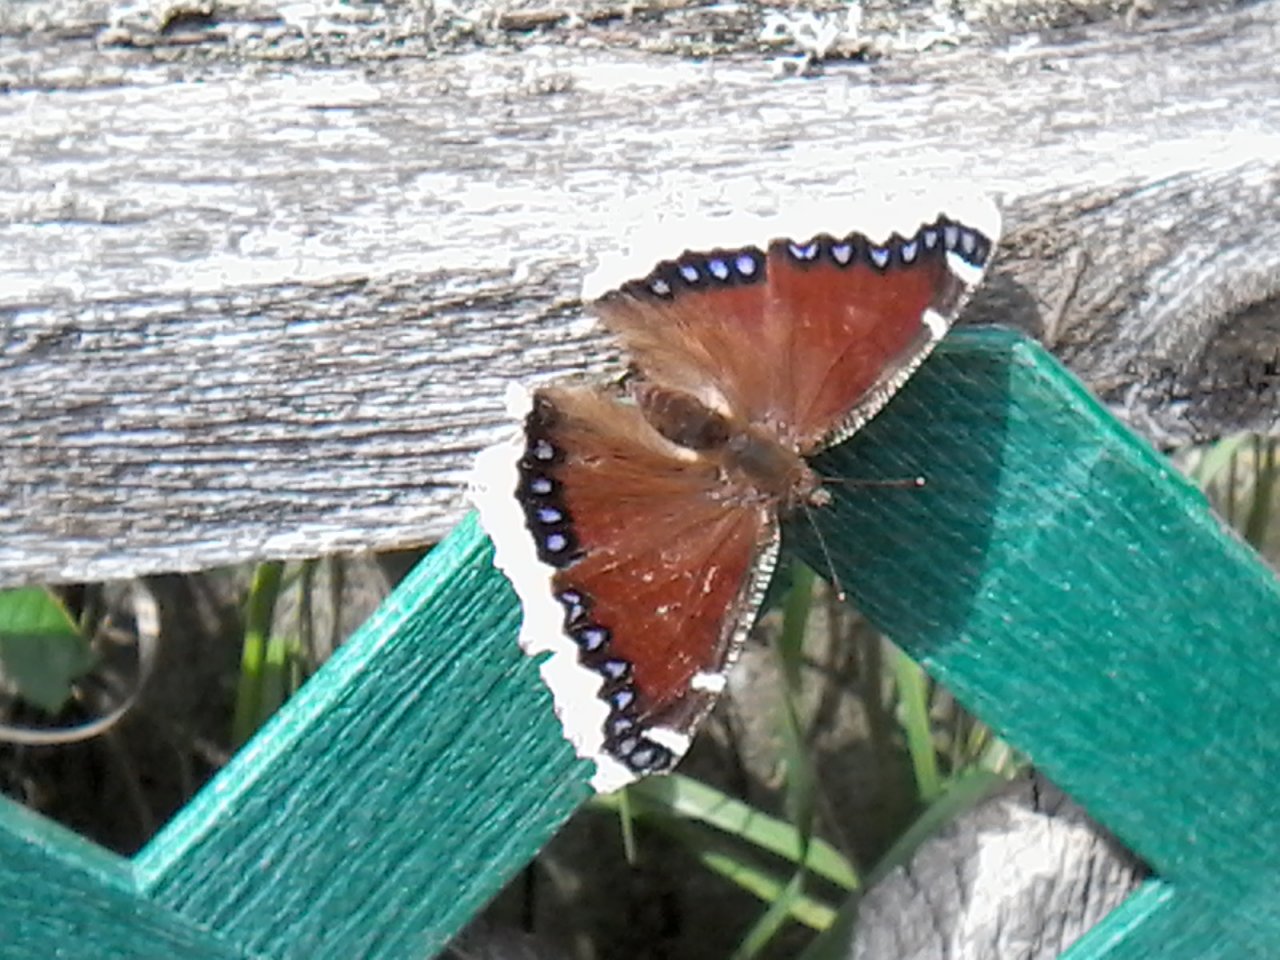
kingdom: Animalia
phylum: Arthropoda
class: Insecta
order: Lepidoptera
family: Nymphalidae
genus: Nymphalis
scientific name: Nymphalis antiopa
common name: Mourning Cloak
